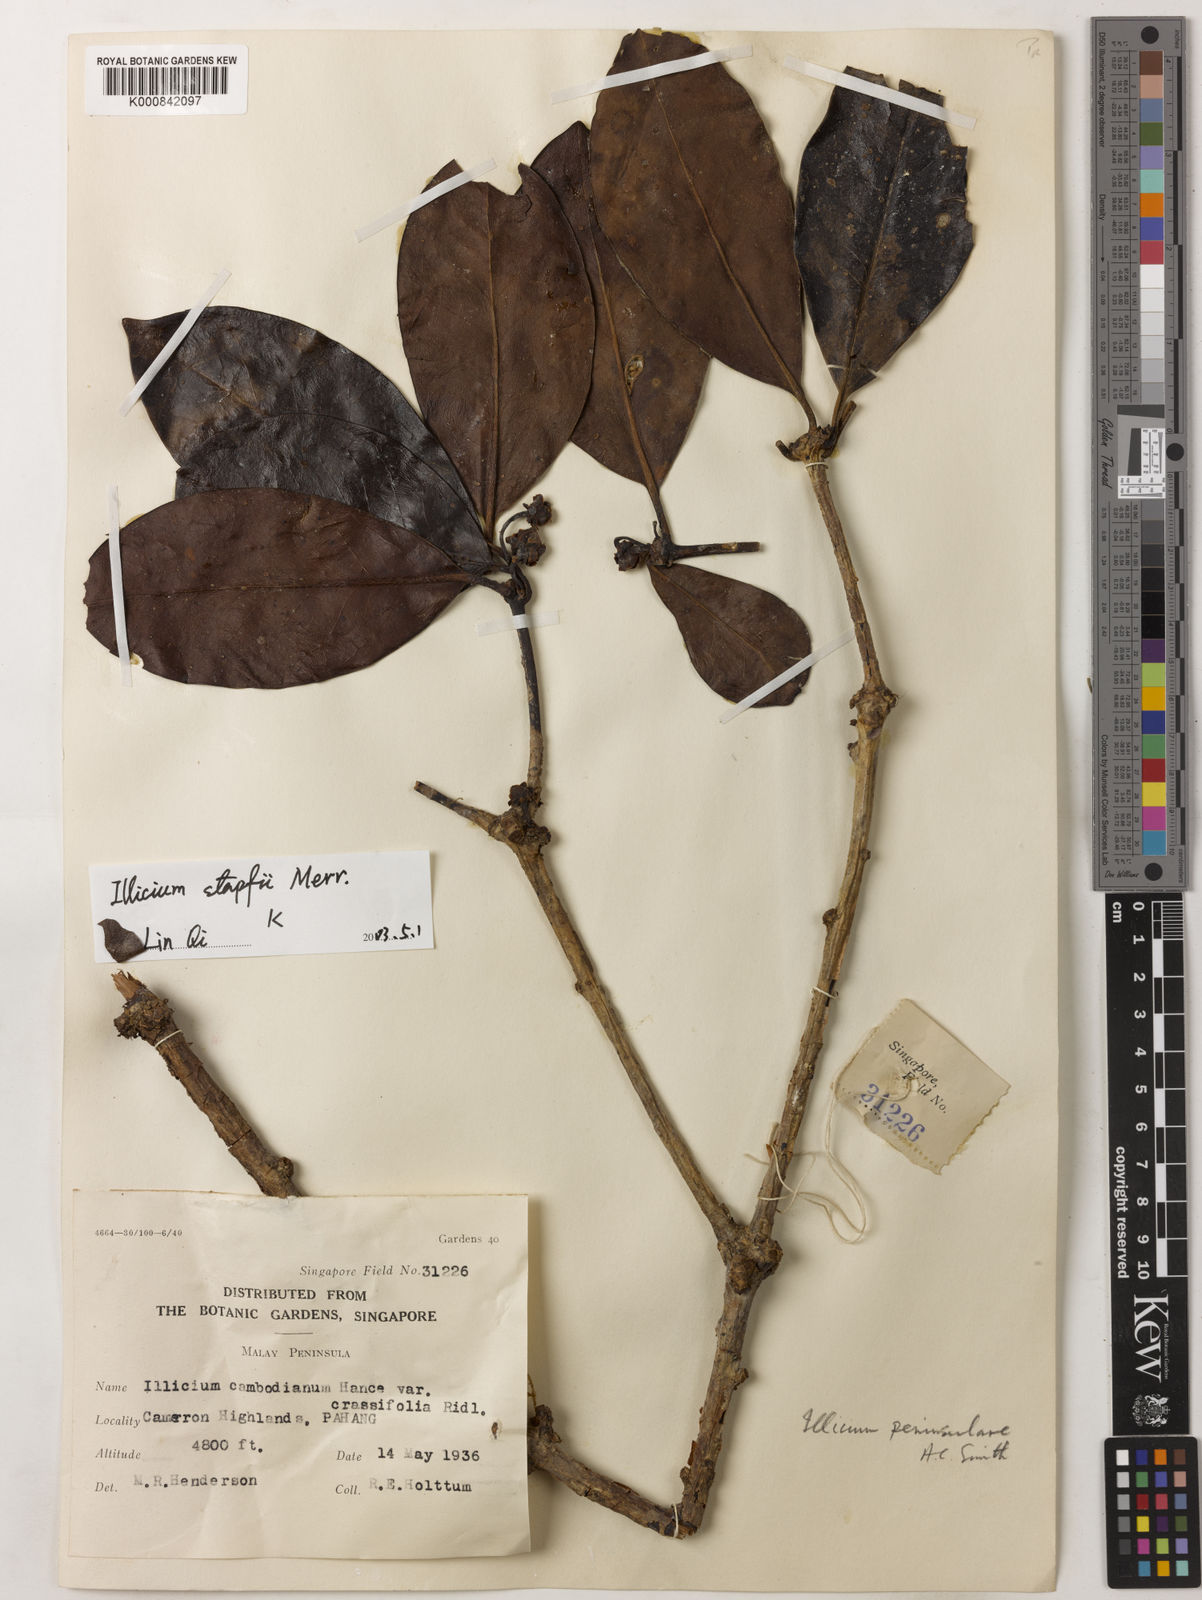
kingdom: Plantae
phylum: Tracheophyta
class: Magnoliopsida
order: Austrobaileyales
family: Schisandraceae
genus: Illicium
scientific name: Illicium stapfii
